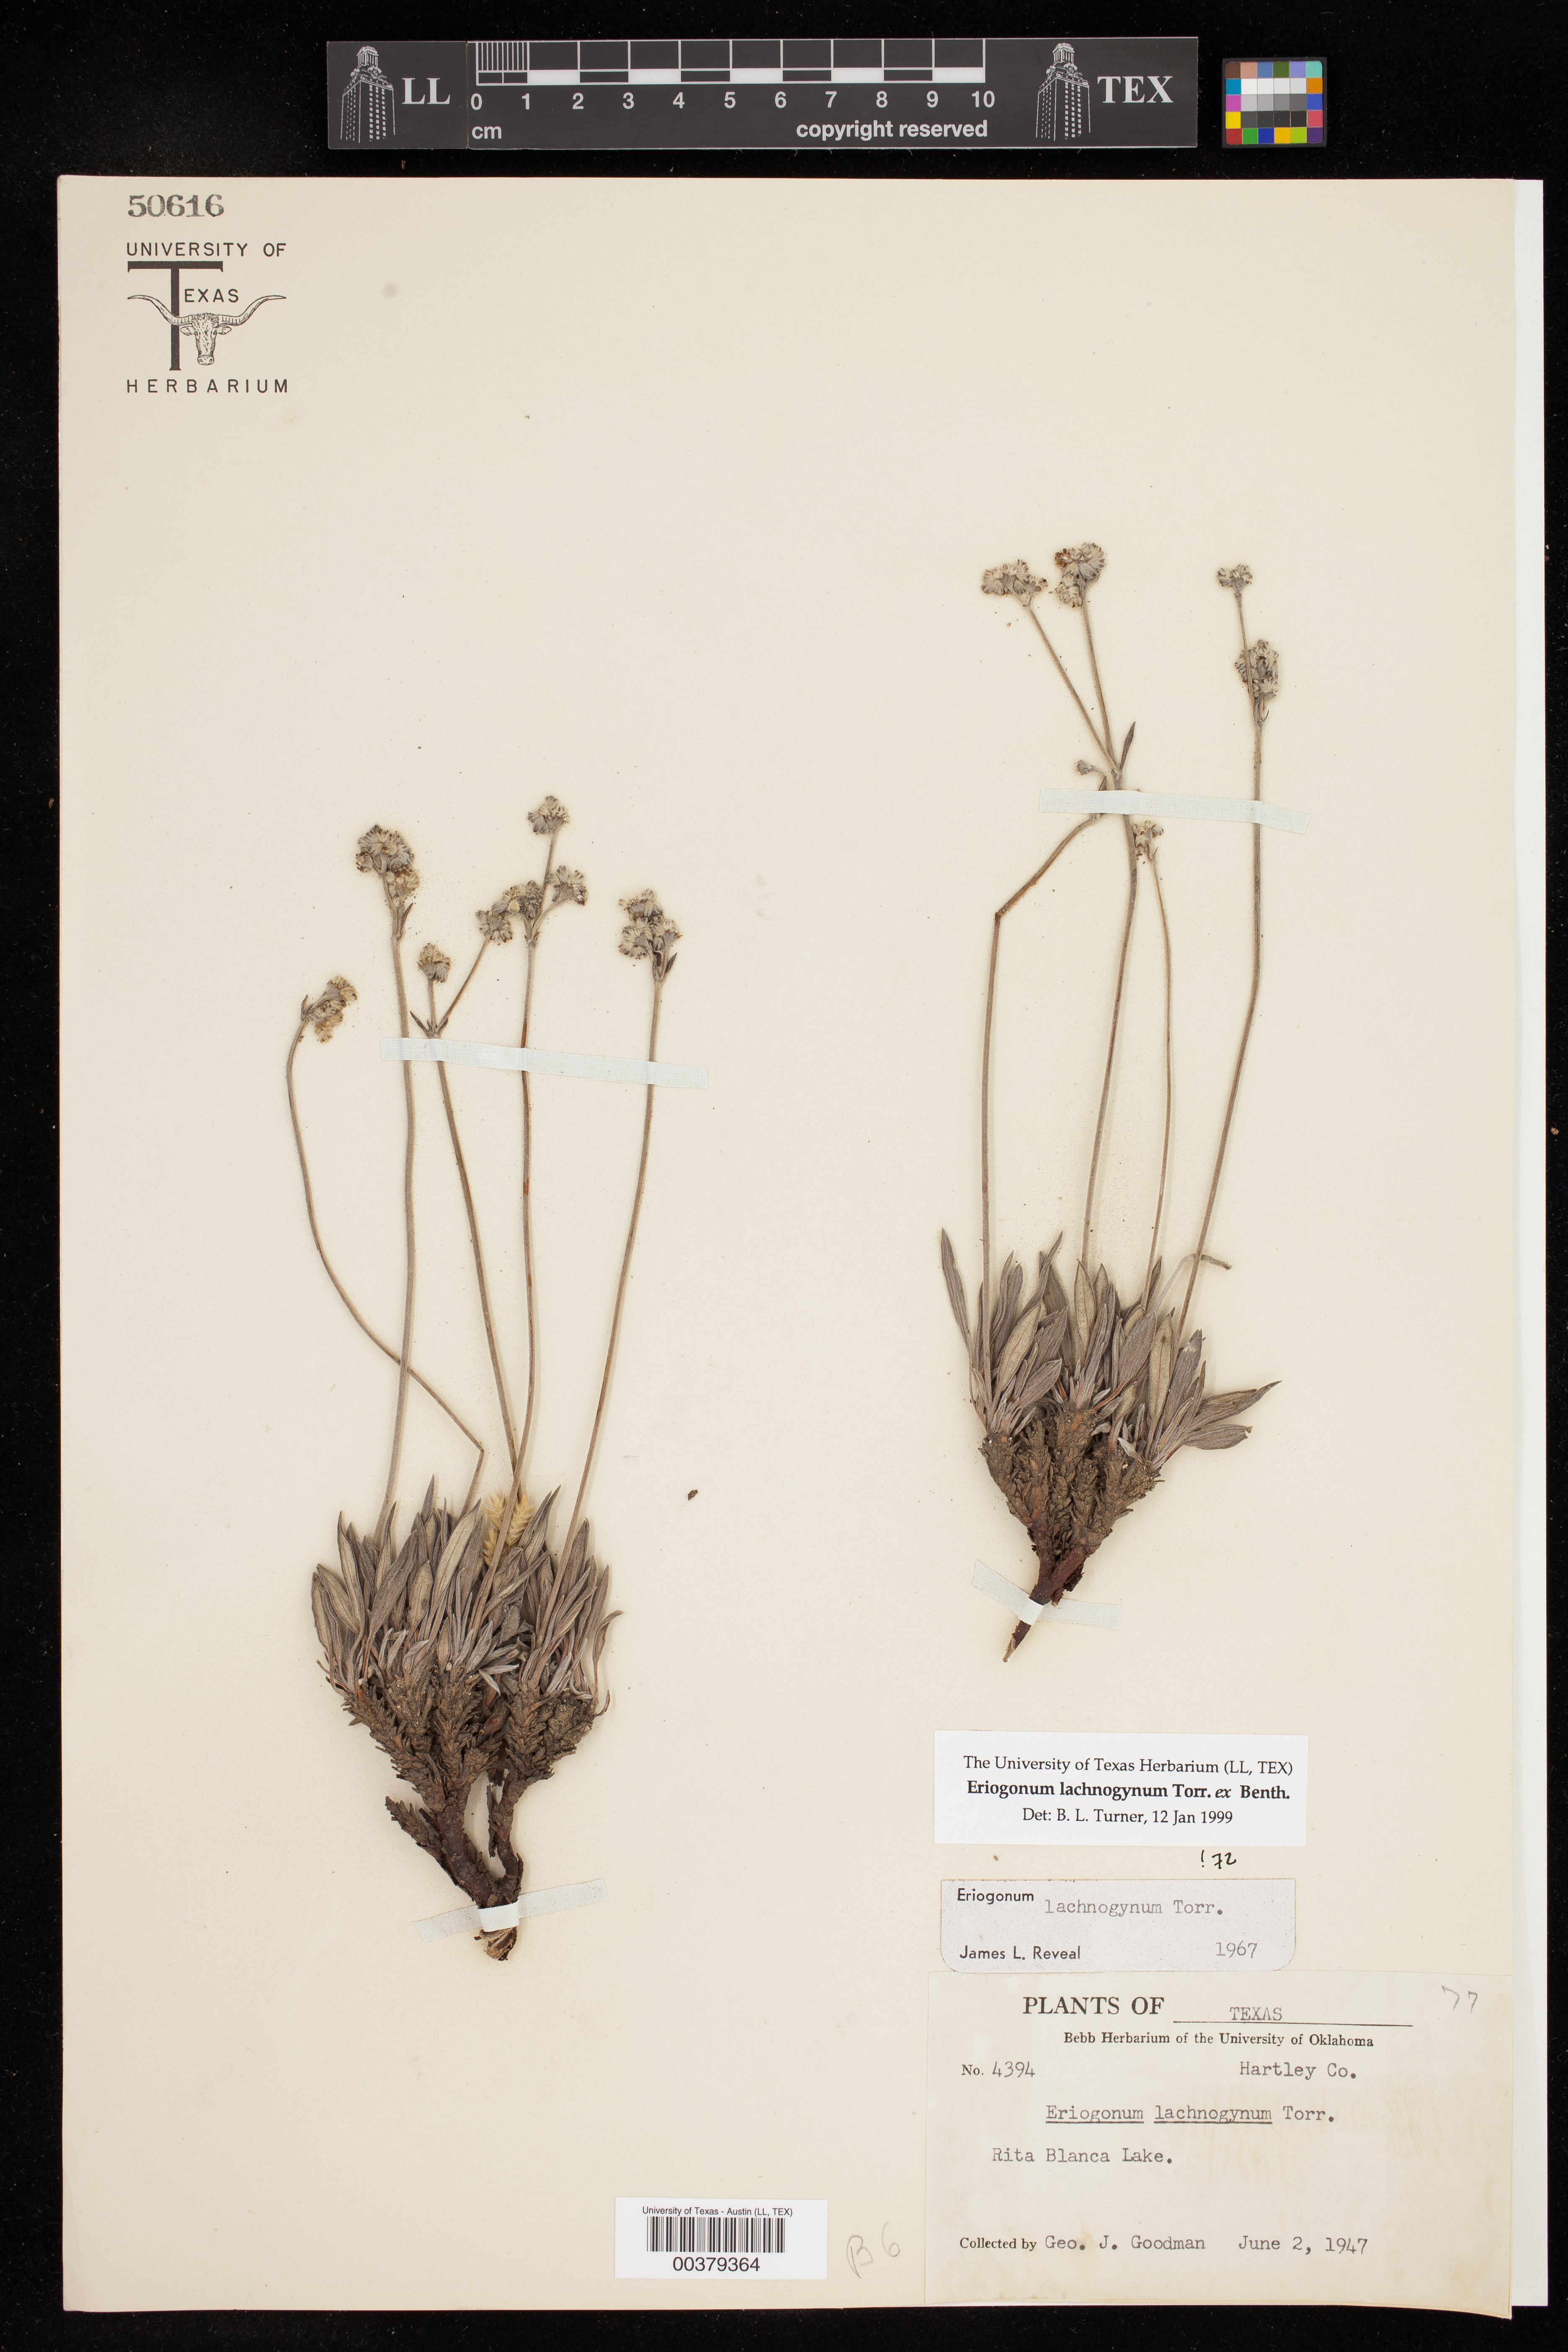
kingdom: Plantae
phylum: Tracheophyta
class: Magnoliopsida
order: Caryophyllales
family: Polygonaceae
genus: Eriogonum
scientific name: Eriogonum lachnogynum
